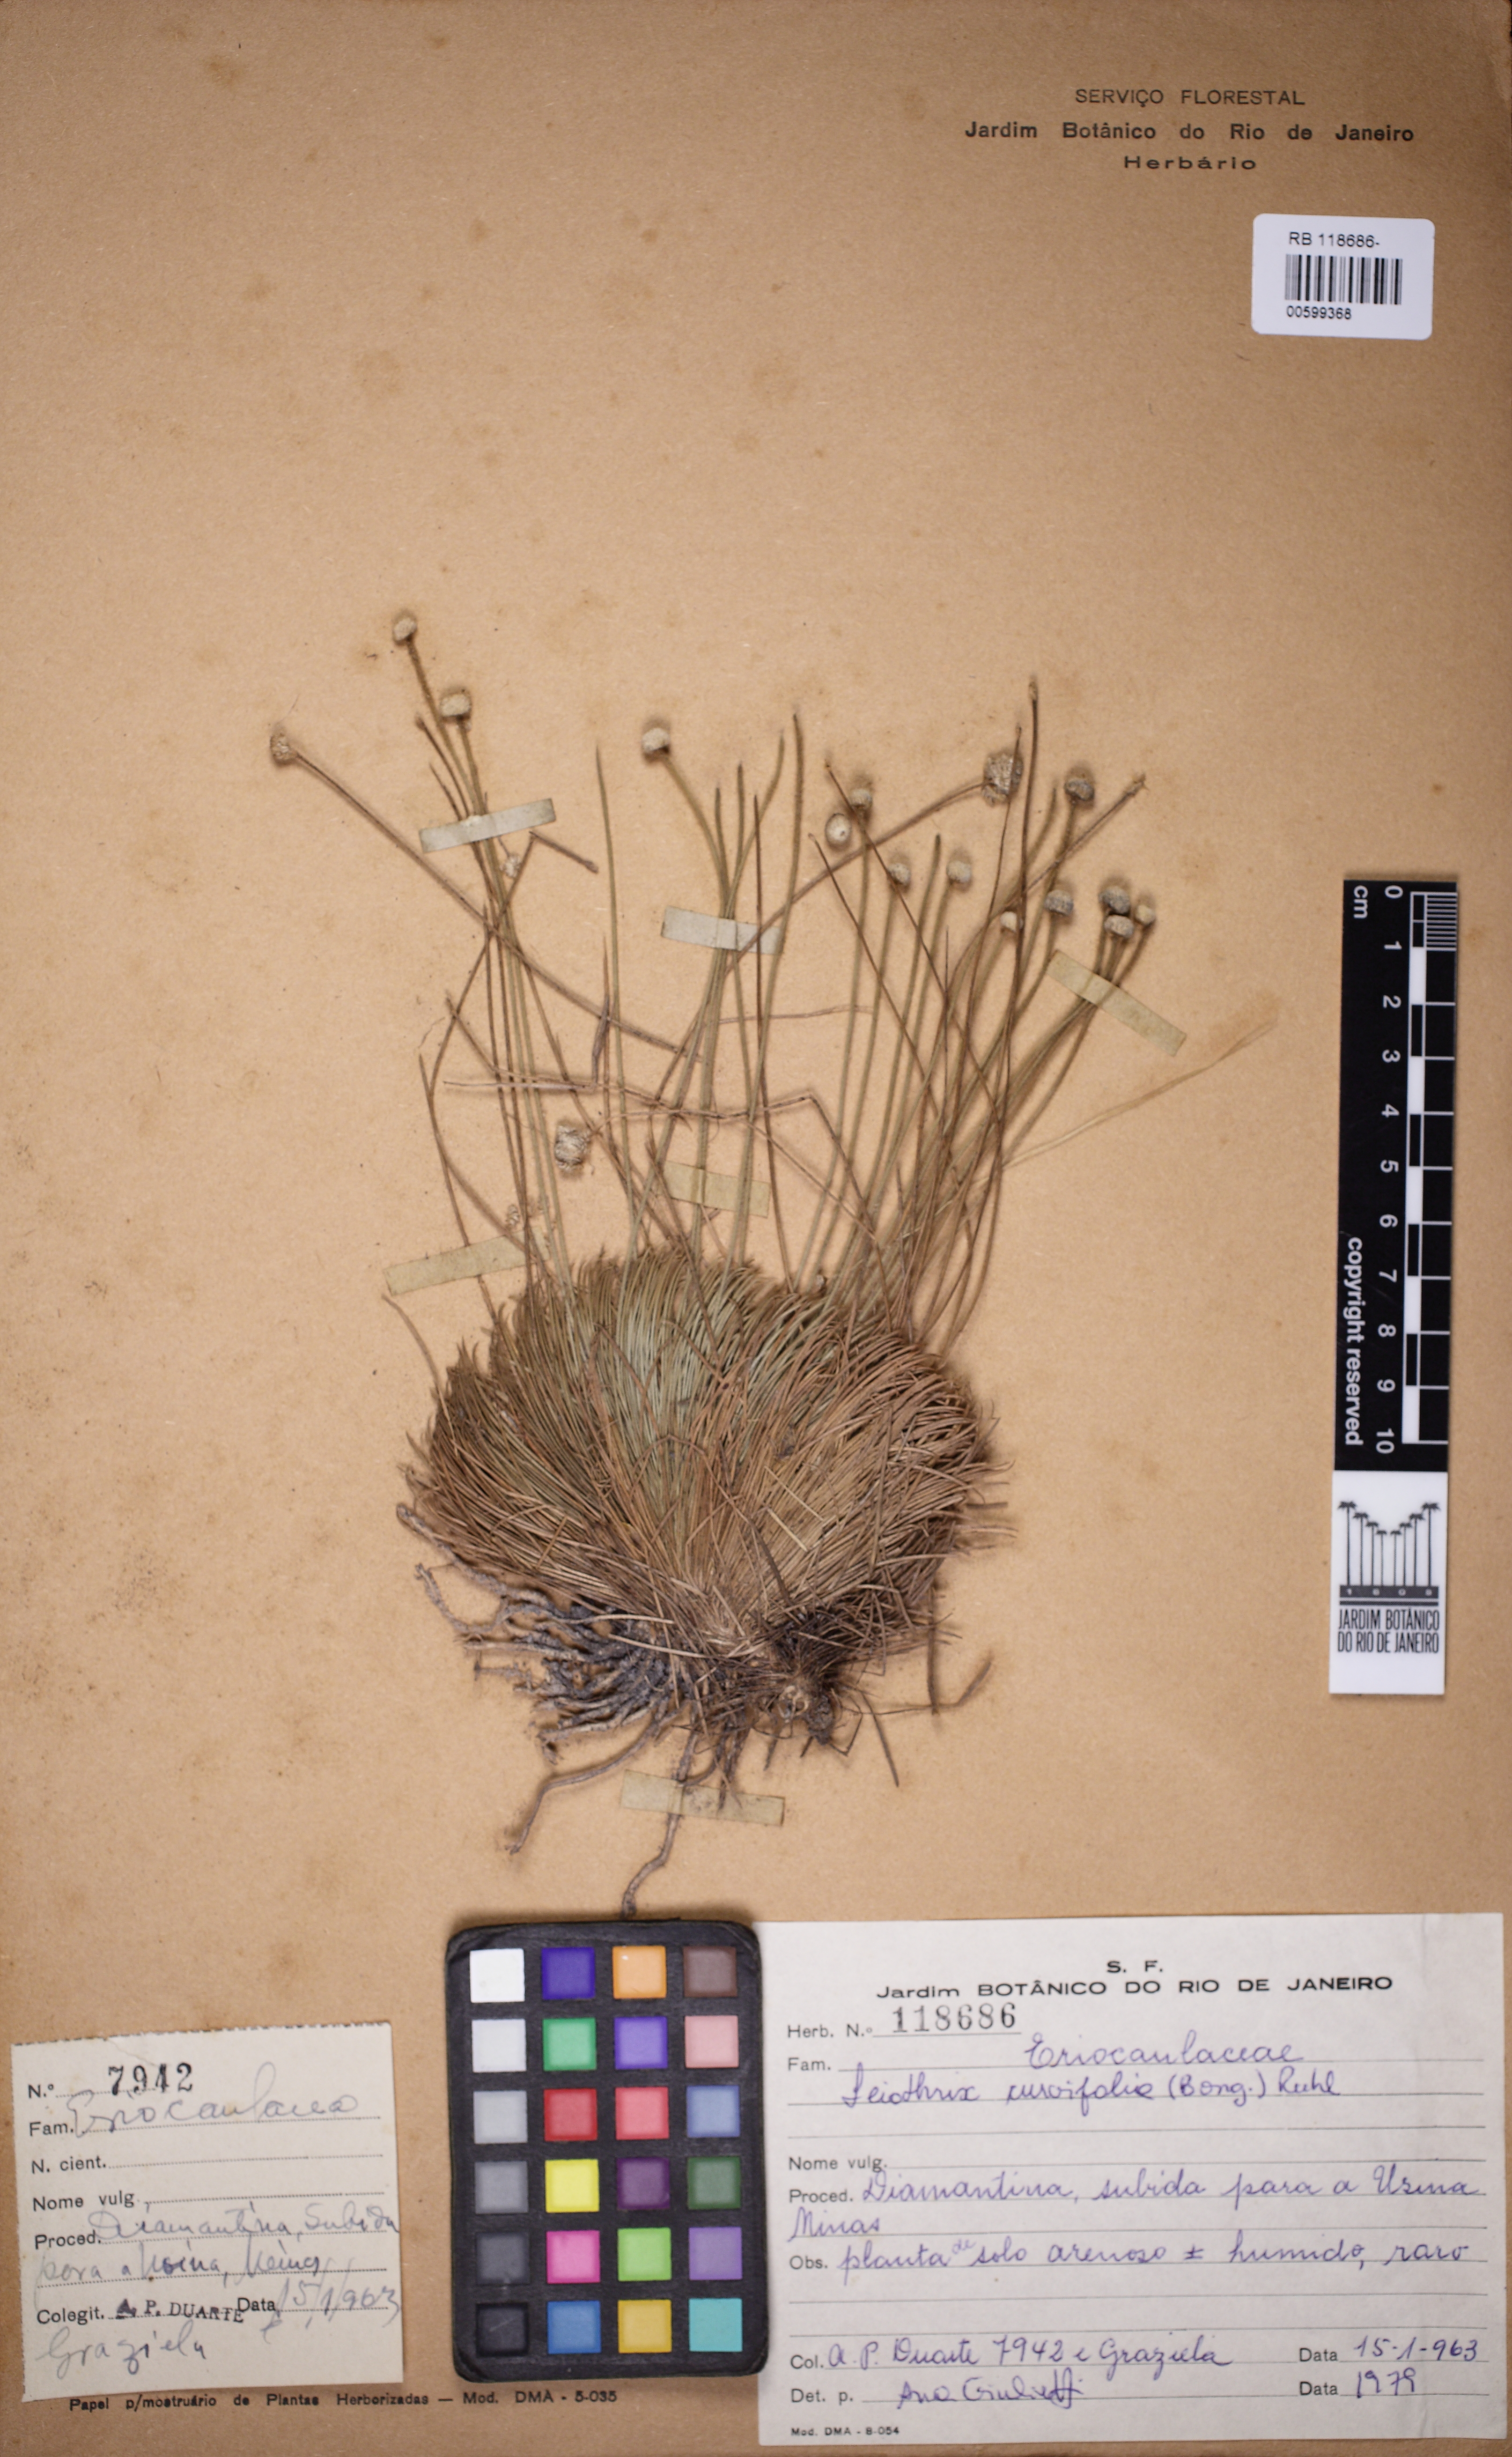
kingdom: Plantae
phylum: Tracheophyta
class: Liliopsida
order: Poales
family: Eriocaulaceae
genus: Leiothrix
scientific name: Leiothrix curvifolia
